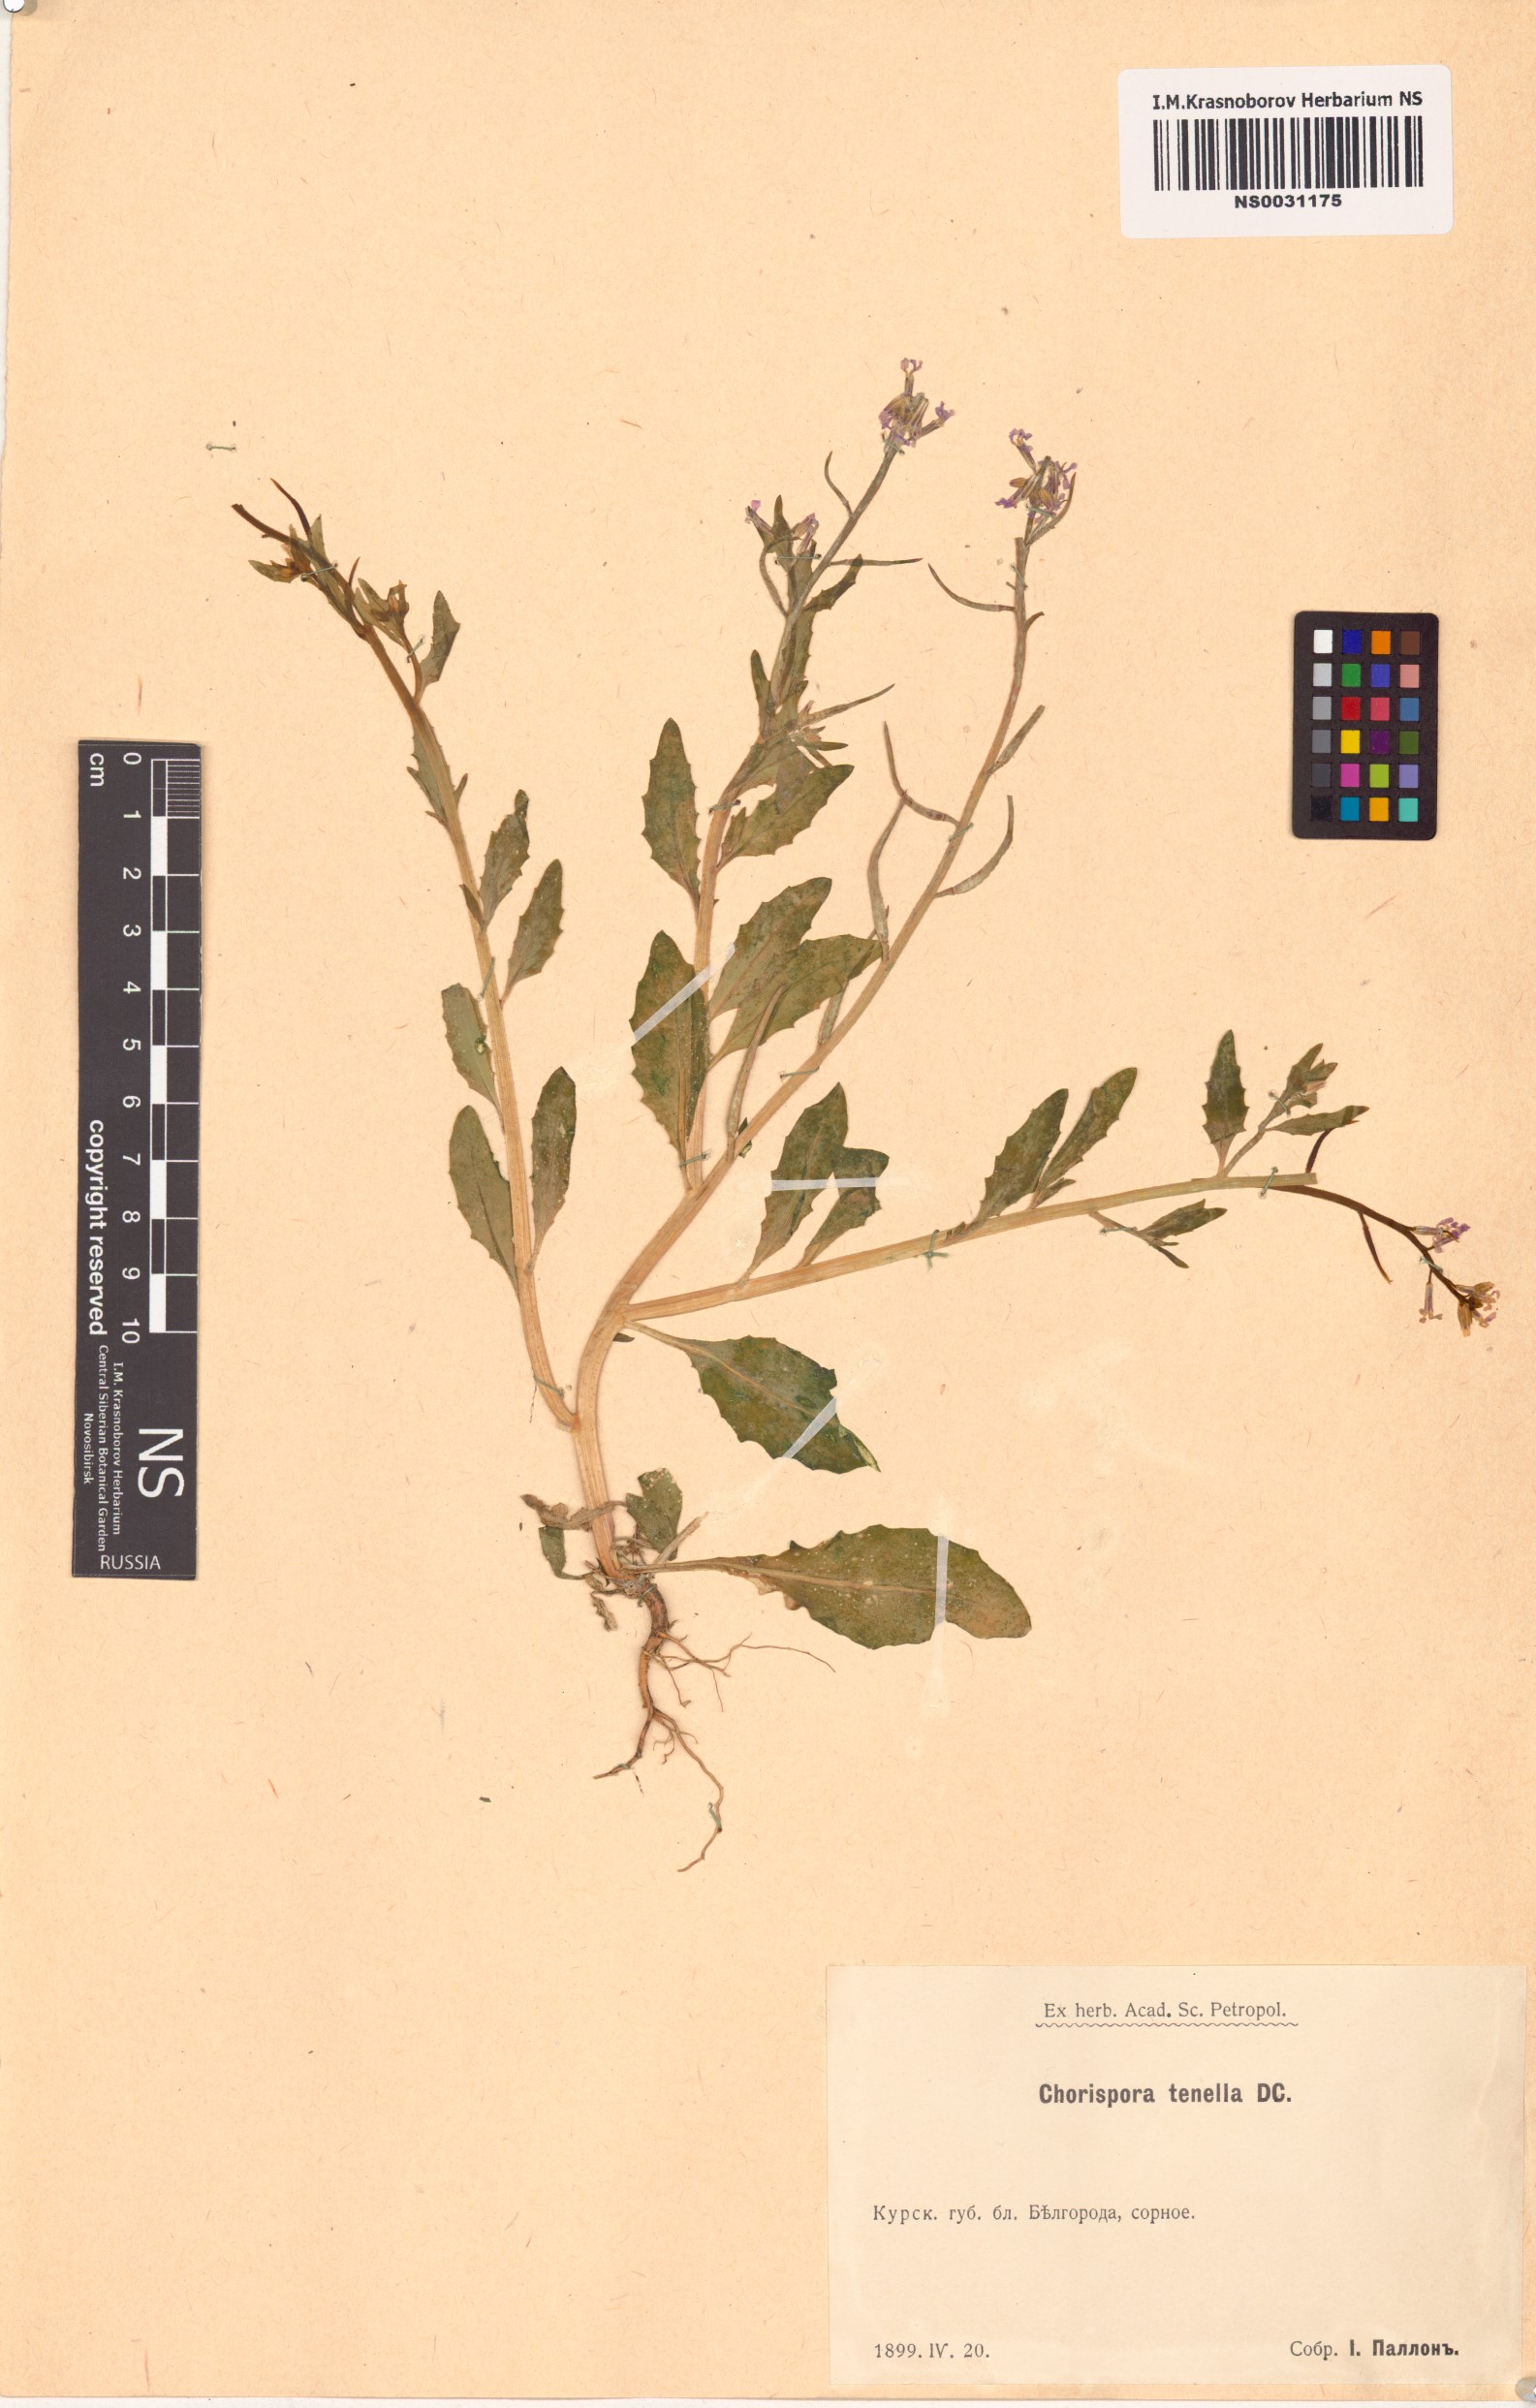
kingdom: Plantae
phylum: Tracheophyta
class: Magnoliopsida
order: Brassicales
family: Brassicaceae
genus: Chorispora
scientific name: Chorispora tenella
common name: Crossflower
